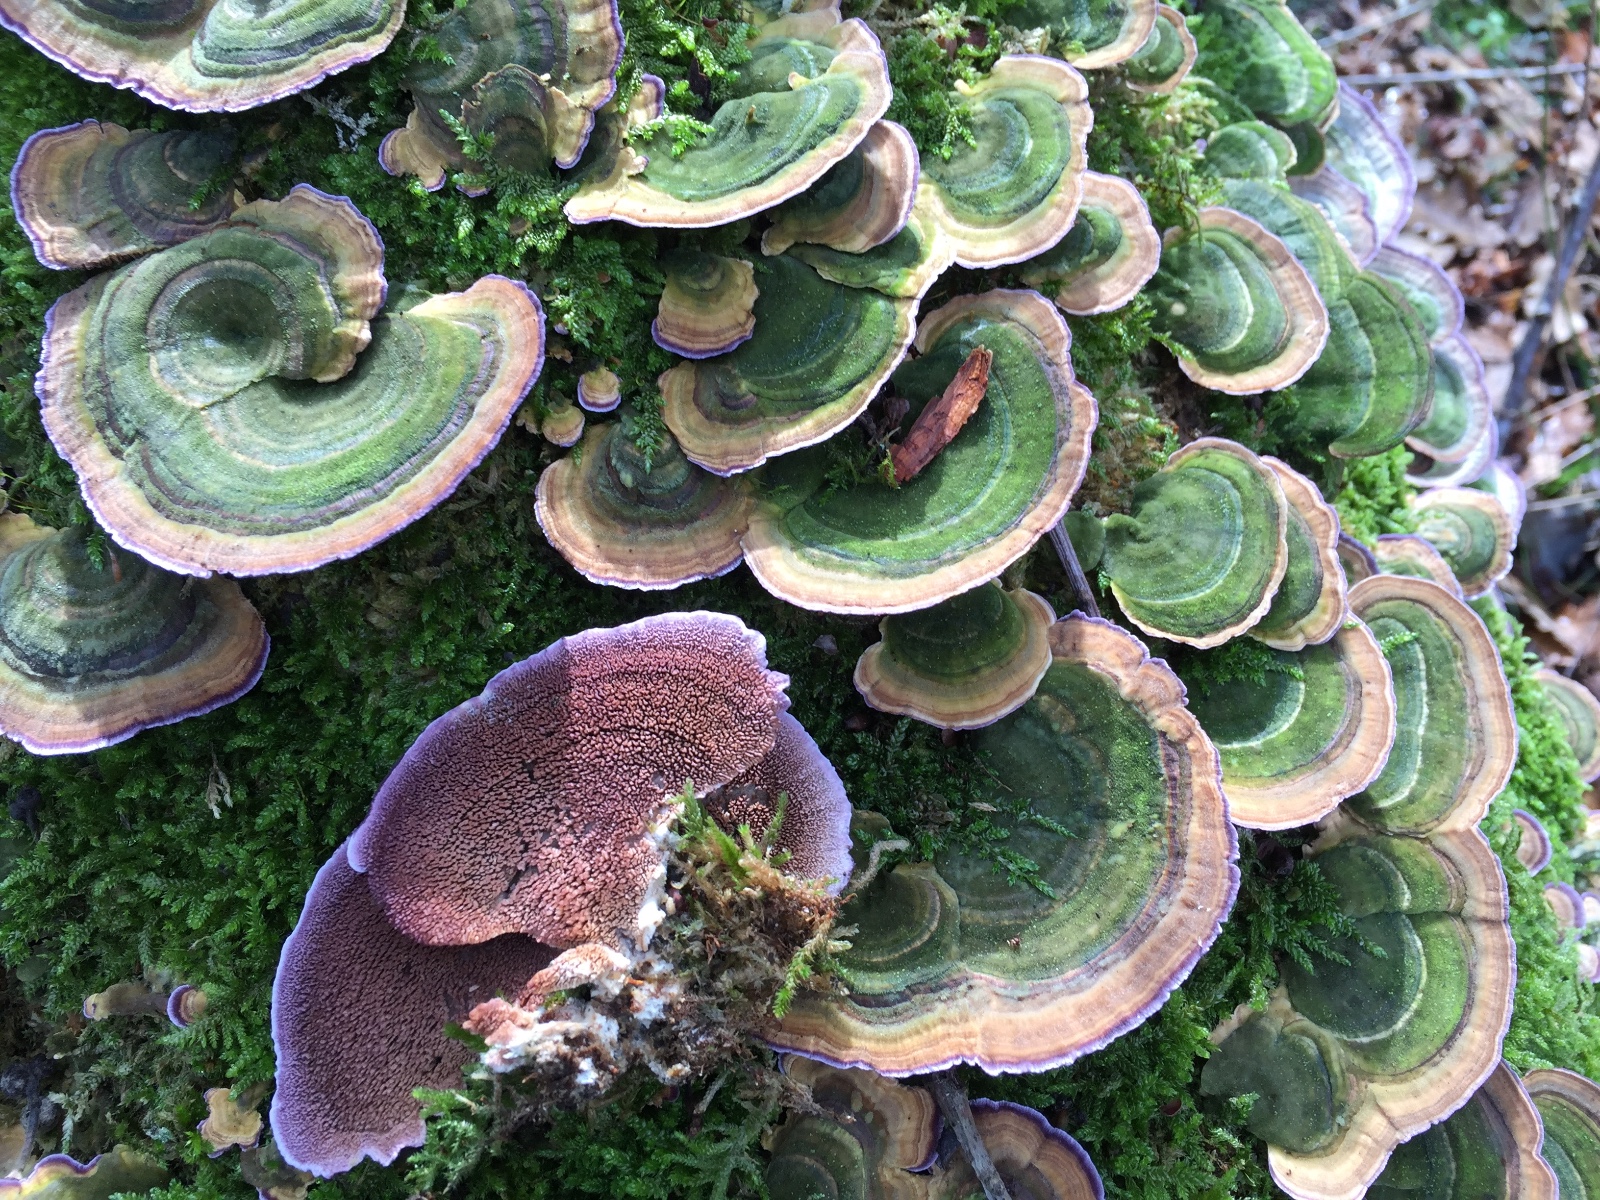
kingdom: Fungi
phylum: Basidiomycota
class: Agaricomycetes
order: Hymenochaetales
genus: Trichaptum
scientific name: Trichaptum biforme
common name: Violet-toothed polypore
